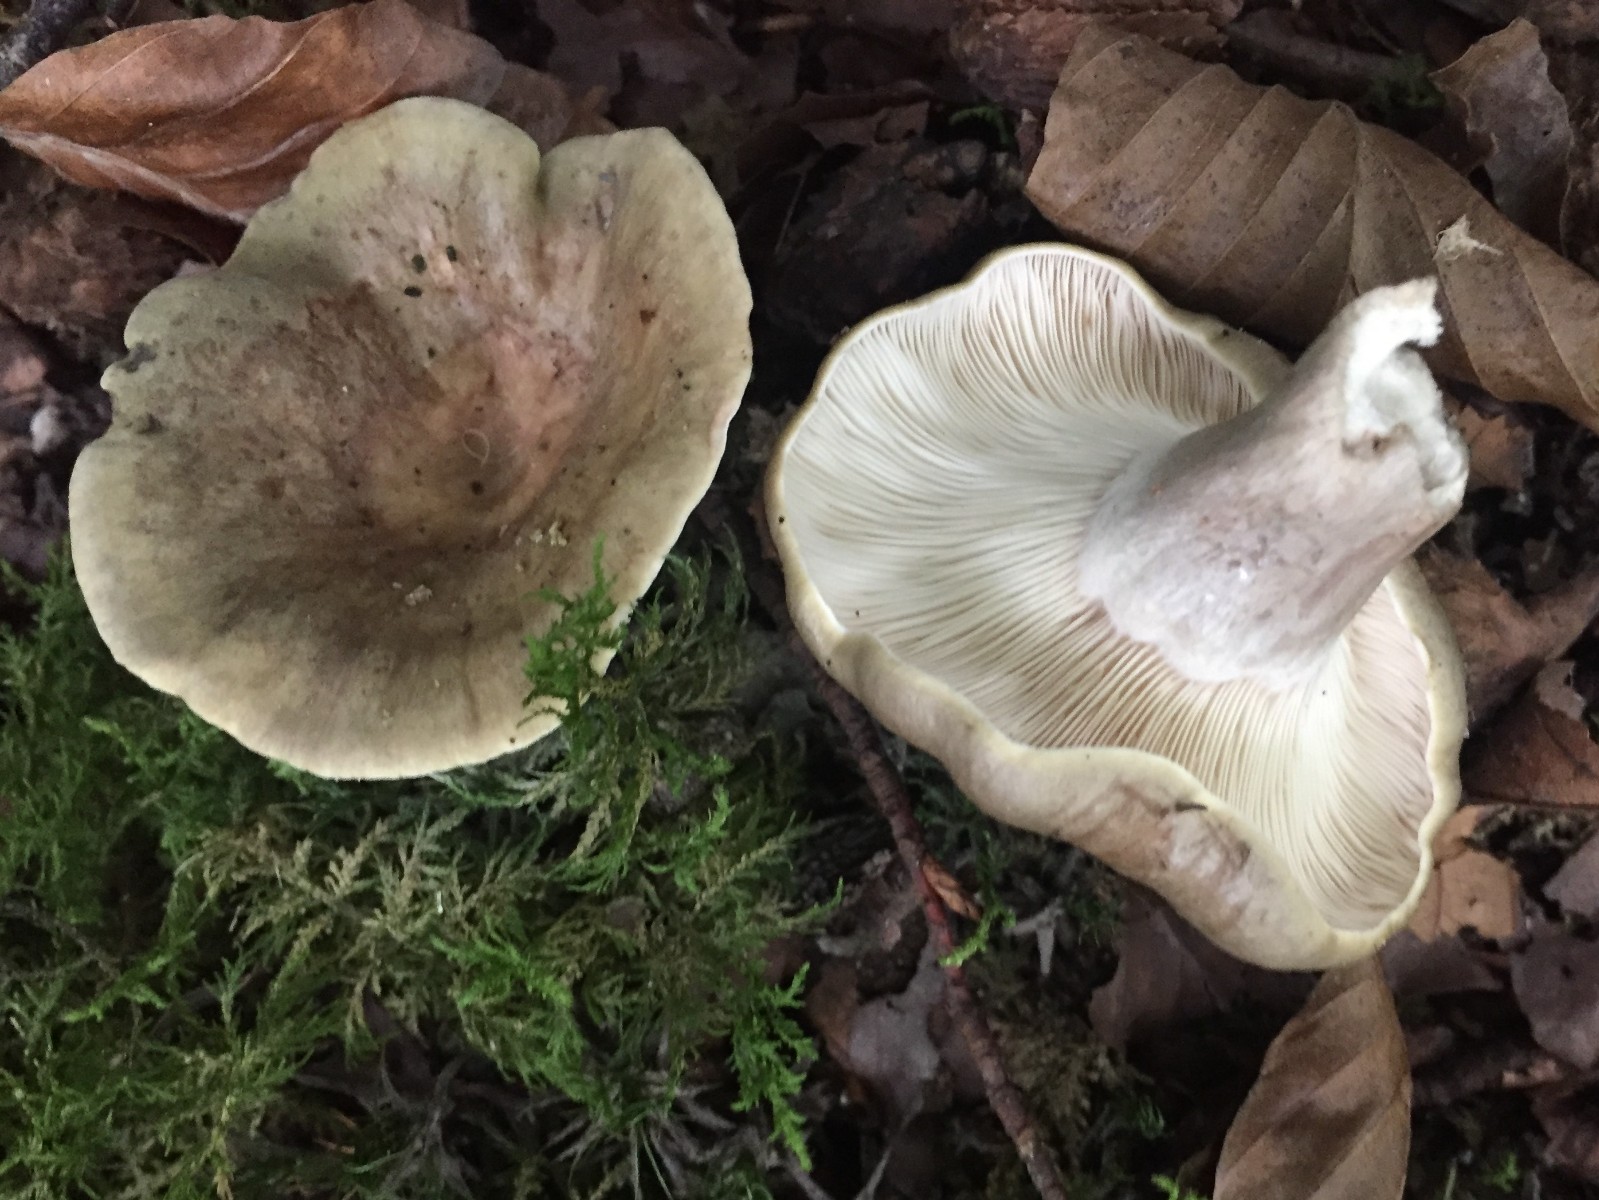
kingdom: Fungi
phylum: Basidiomycota
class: Agaricomycetes
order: Russulales
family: Russulaceae
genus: Lactarius
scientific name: Lactarius fluens
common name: lysrandet mælkehat
